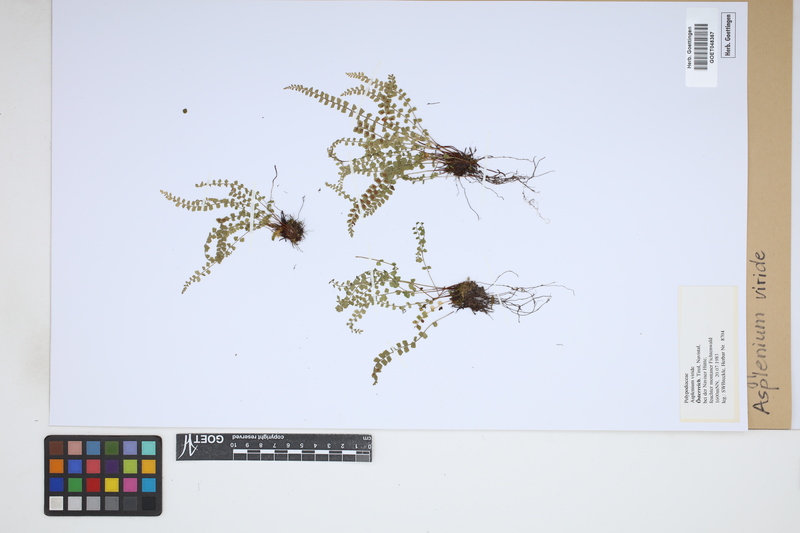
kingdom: Plantae
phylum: Tracheophyta
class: Polypodiopsida
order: Polypodiales
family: Aspleniaceae
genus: Asplenium
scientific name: Asplenium viride
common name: Green spleenwort
